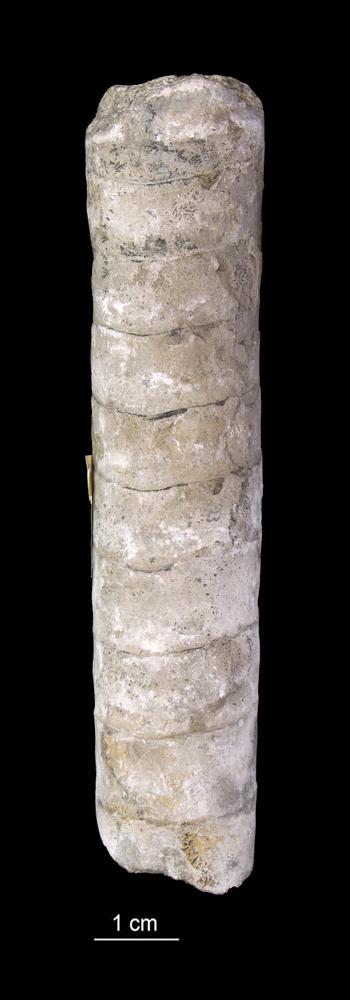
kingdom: Animalia
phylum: Mollusca
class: Cephalopoda
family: Endoceratidae
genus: Endoceras
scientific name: Endoceras
